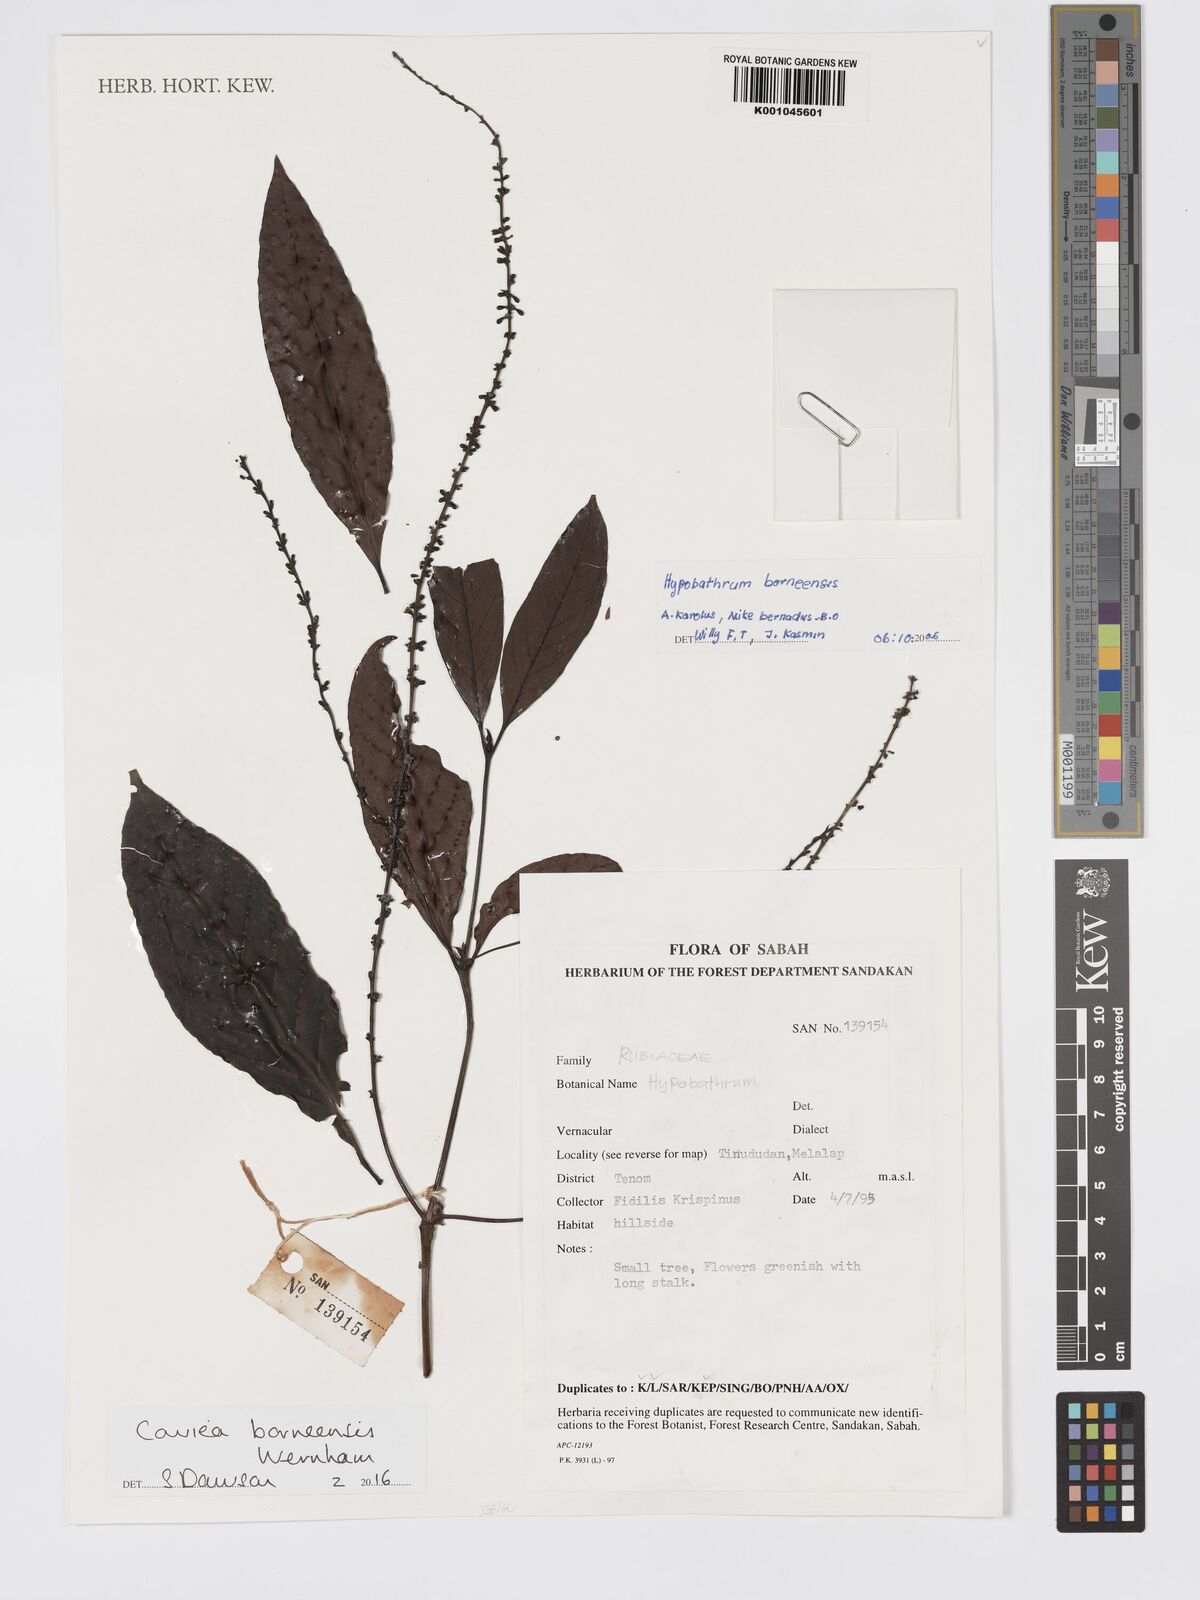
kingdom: Plantae
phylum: Tracheophyta
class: Magnoliopsida
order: Gentianales
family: Rubiaceae
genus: Cowiea
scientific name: Cowiea borneensis
